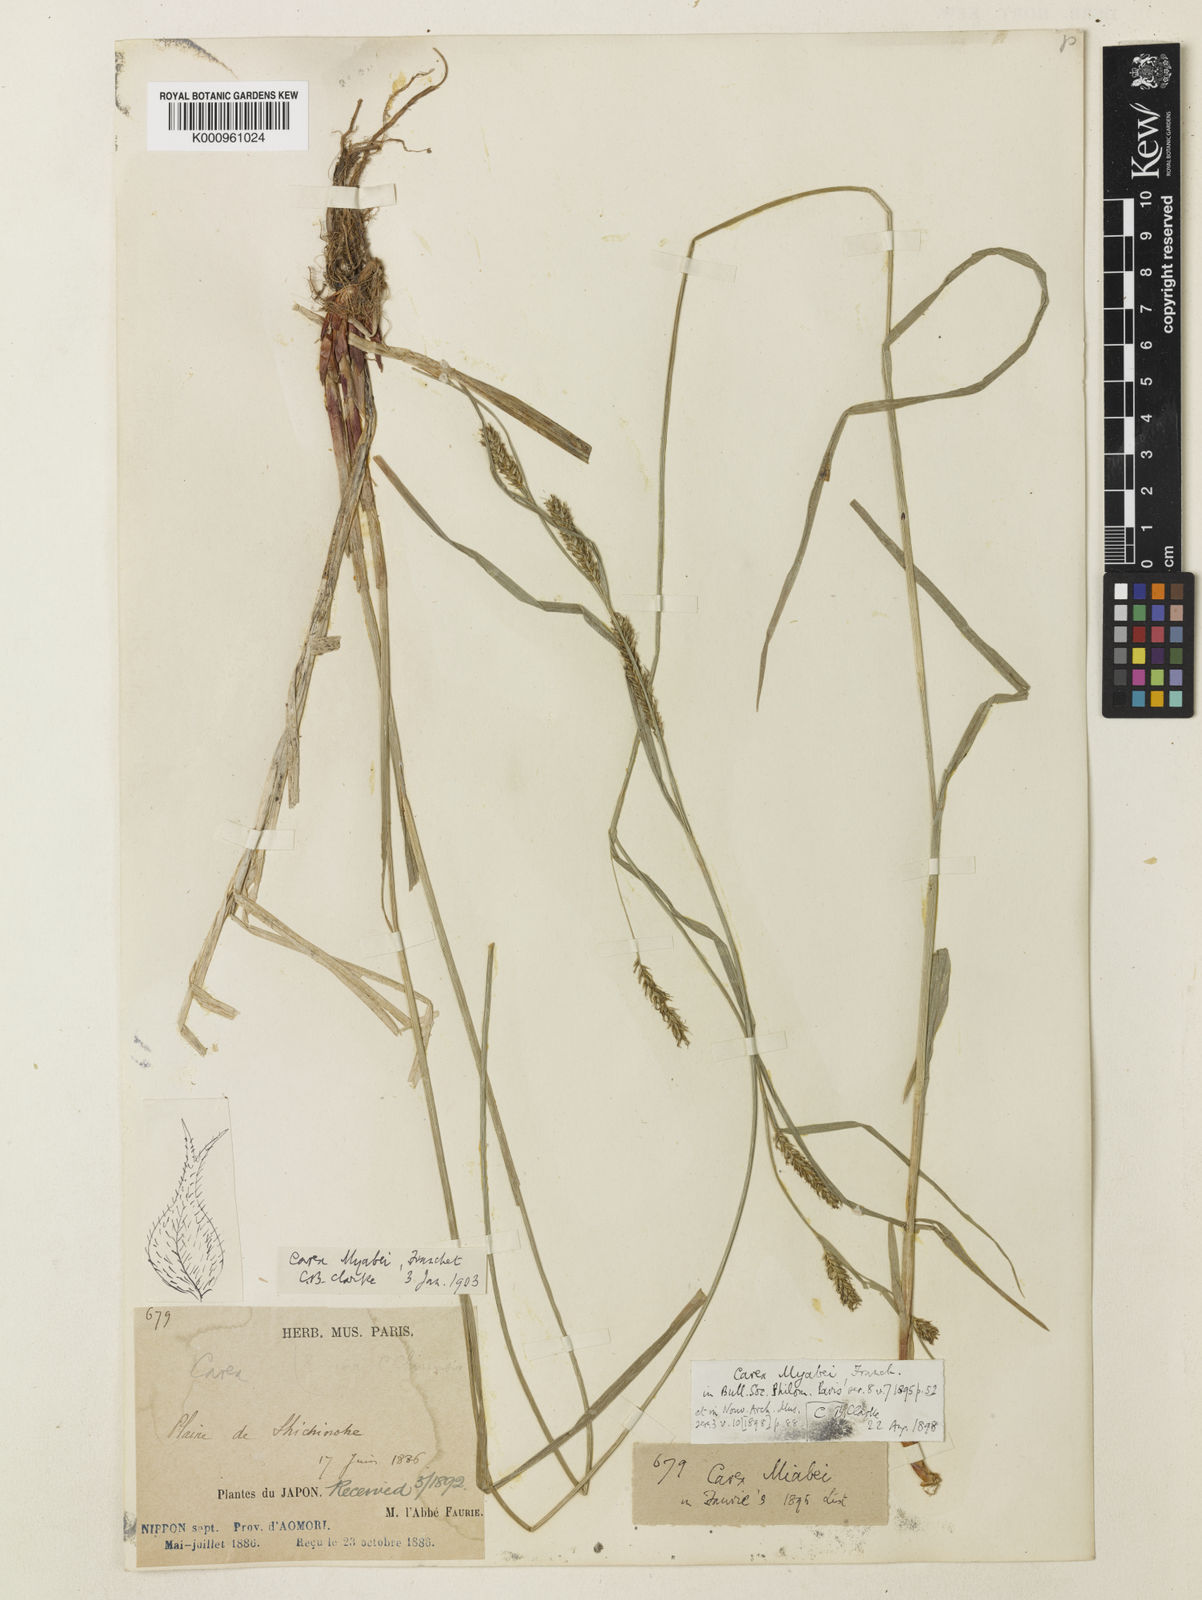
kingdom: Plantae
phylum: Tracheophyta
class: Liliopsida
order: Poales
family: Cyperaceae
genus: Carex
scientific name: Carex wallichiana
